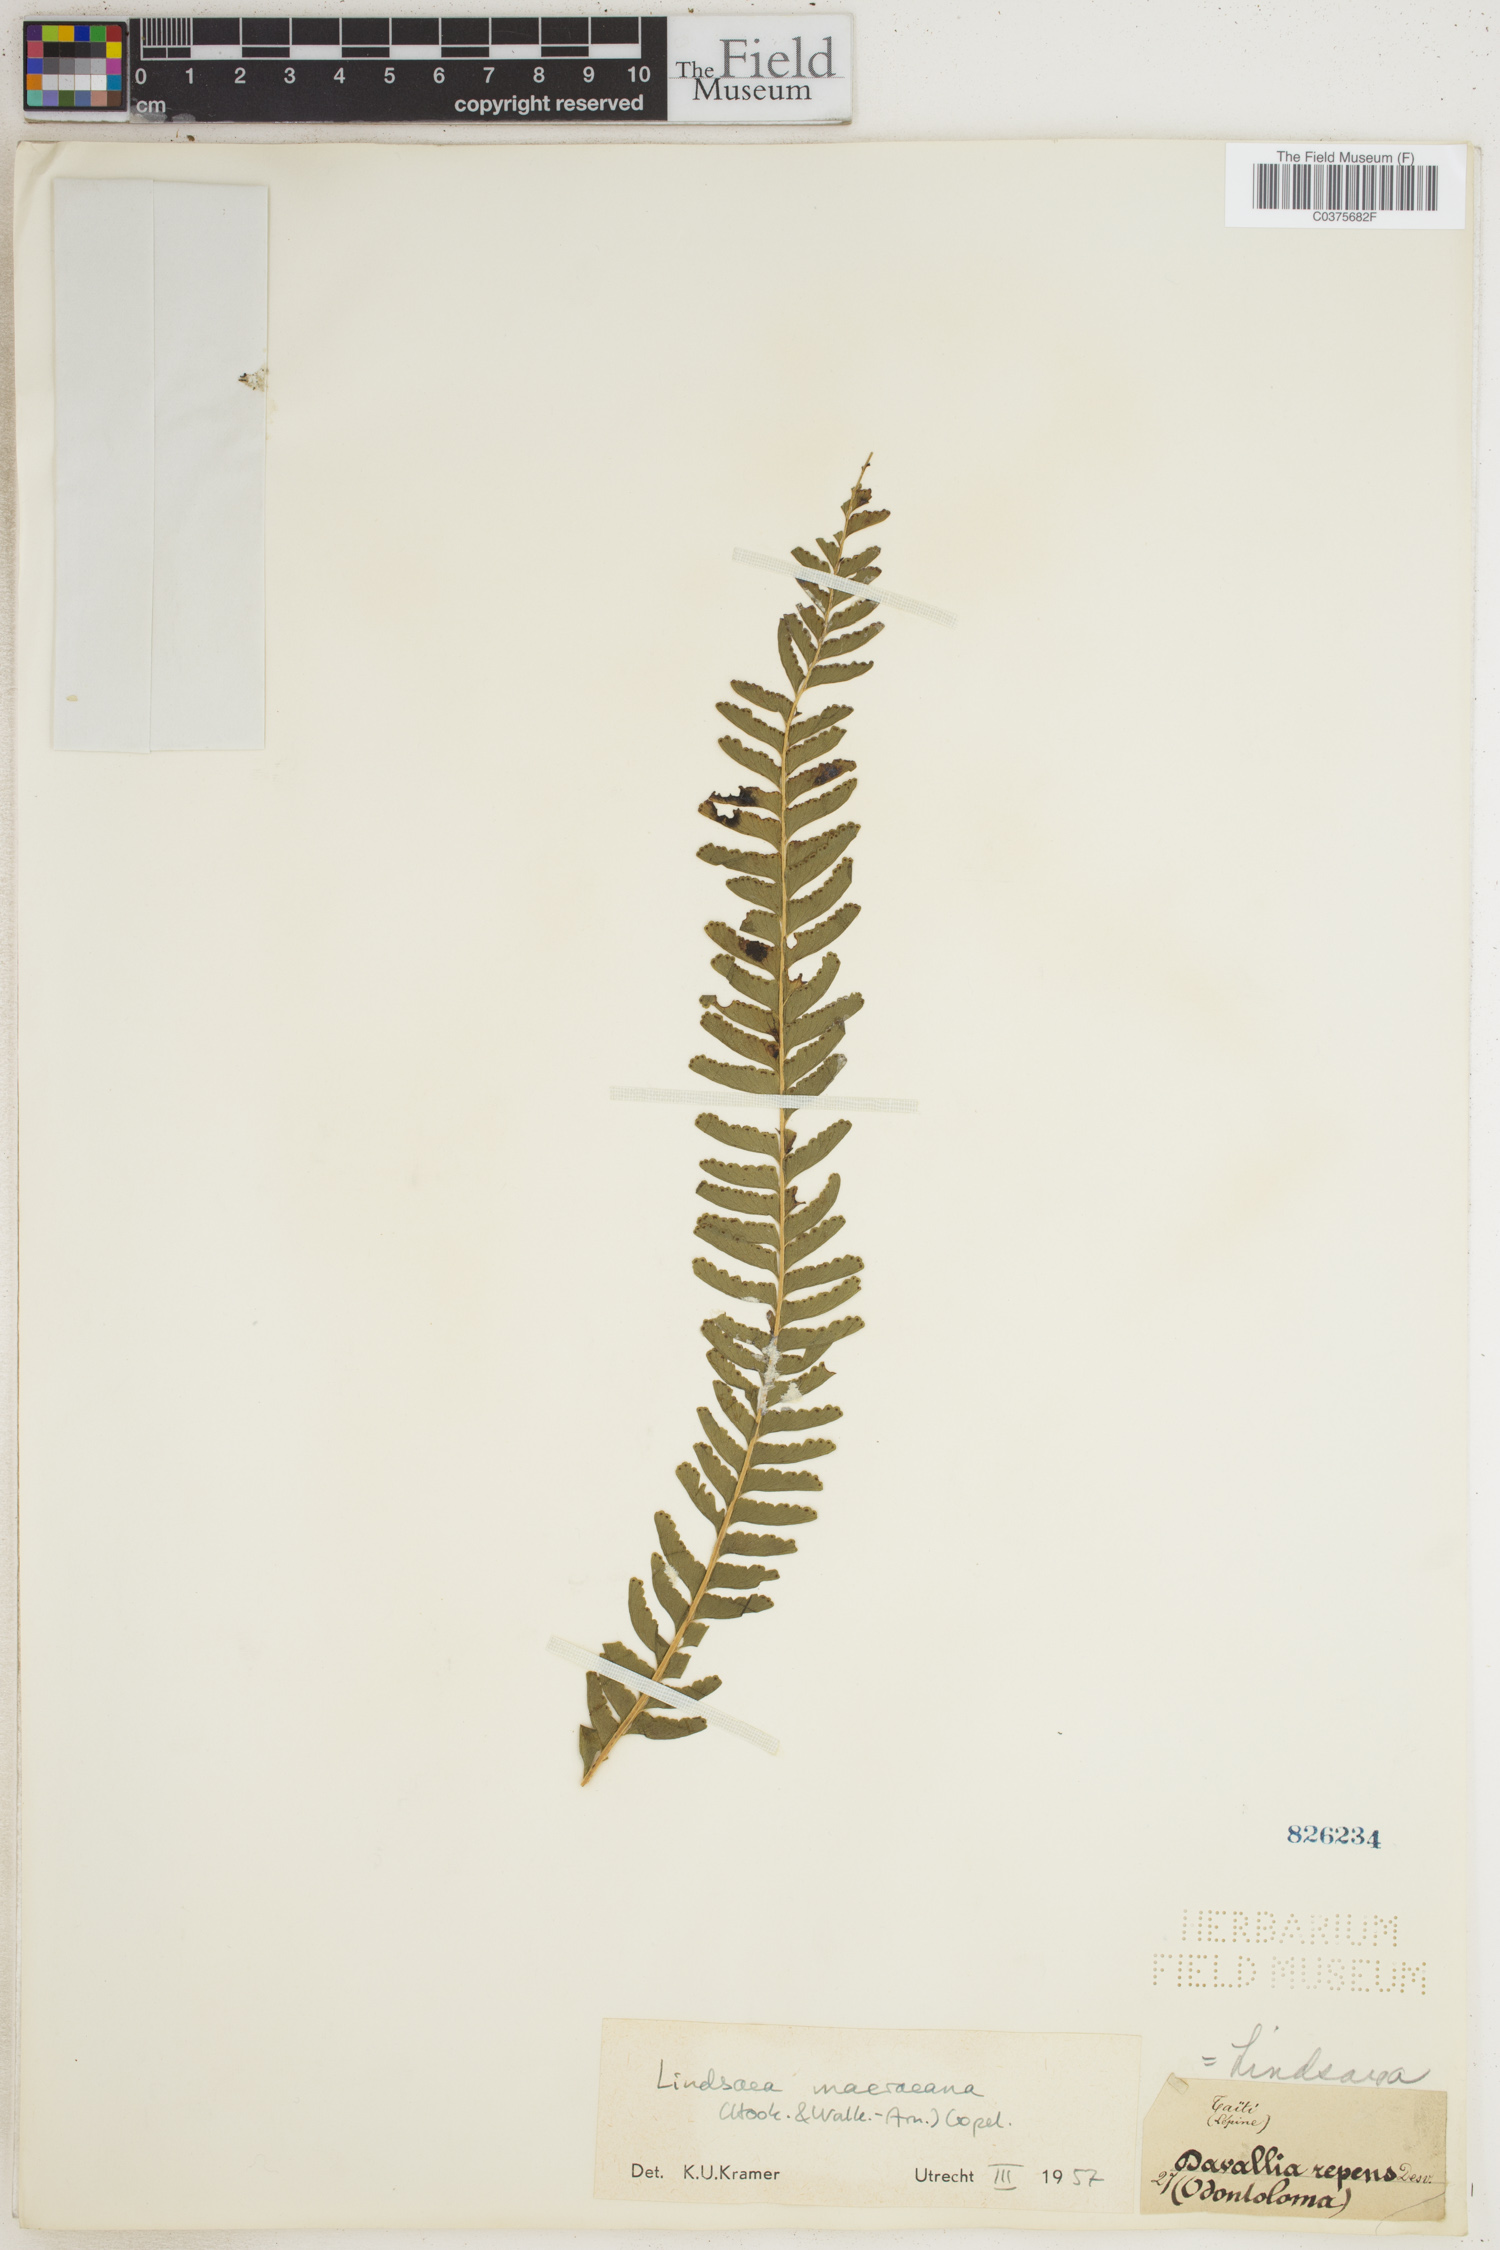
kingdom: Plantae
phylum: Tracheophyta
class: Polypodiopsida
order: Polypodiales
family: Lindsaeaceae
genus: Lindsaea
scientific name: Lindsaea macraeana
